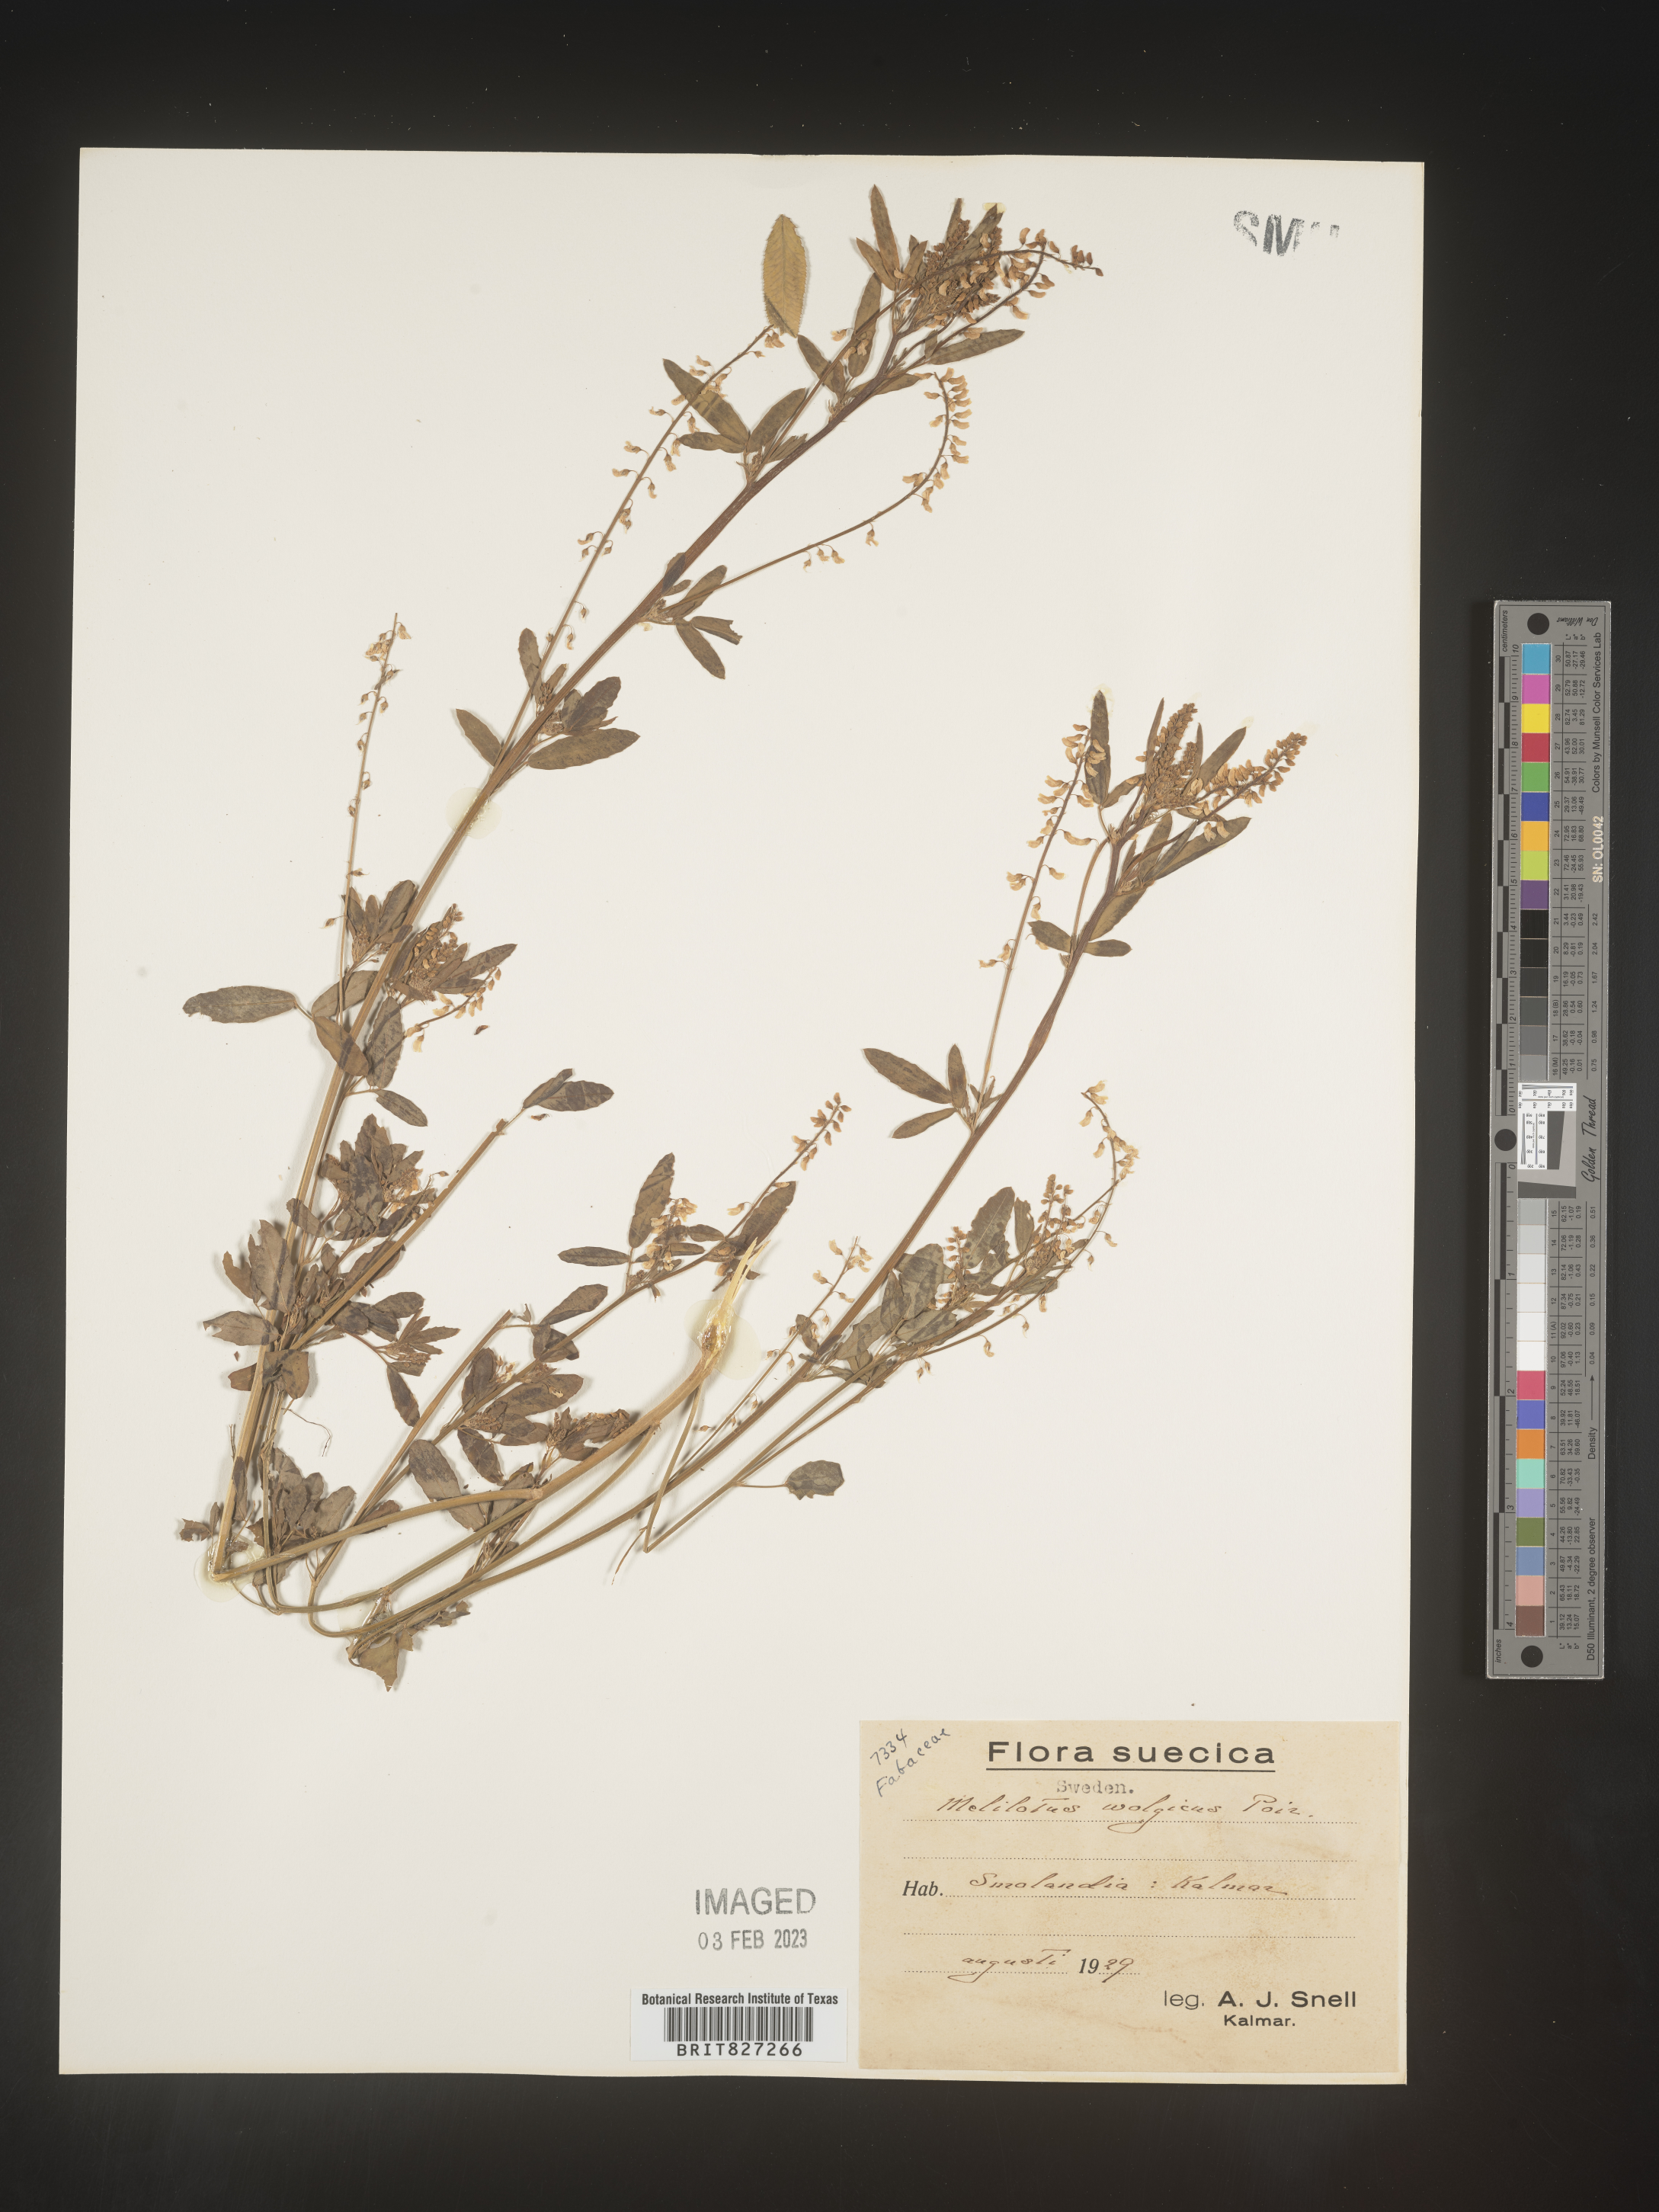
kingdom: Plantae
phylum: Tracheophyta
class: Magnoliopsida
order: Fabales
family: Fabaceae
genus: Melilotus
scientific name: Melilotus
